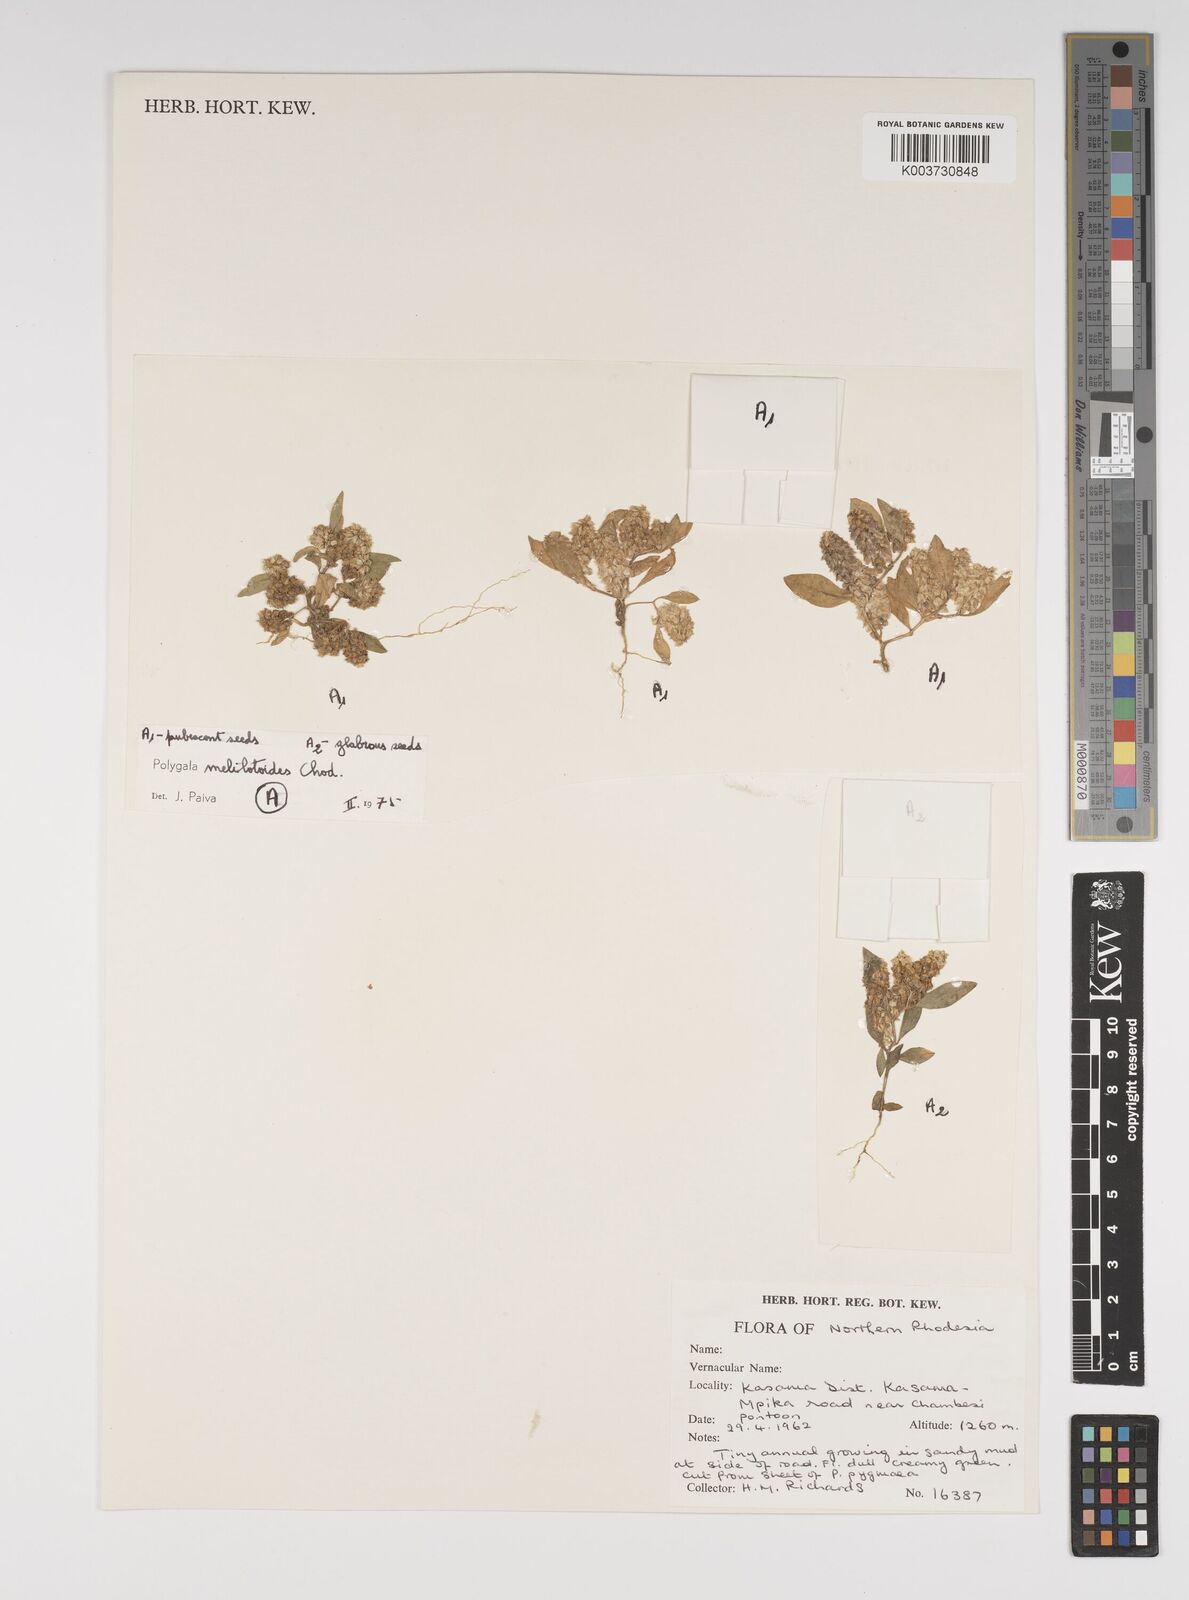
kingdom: Plantae
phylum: Tracheophyta
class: Magnoliopsida
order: Fabales
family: Polygalaceae
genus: Polygala
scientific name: Polygala melilotoides
